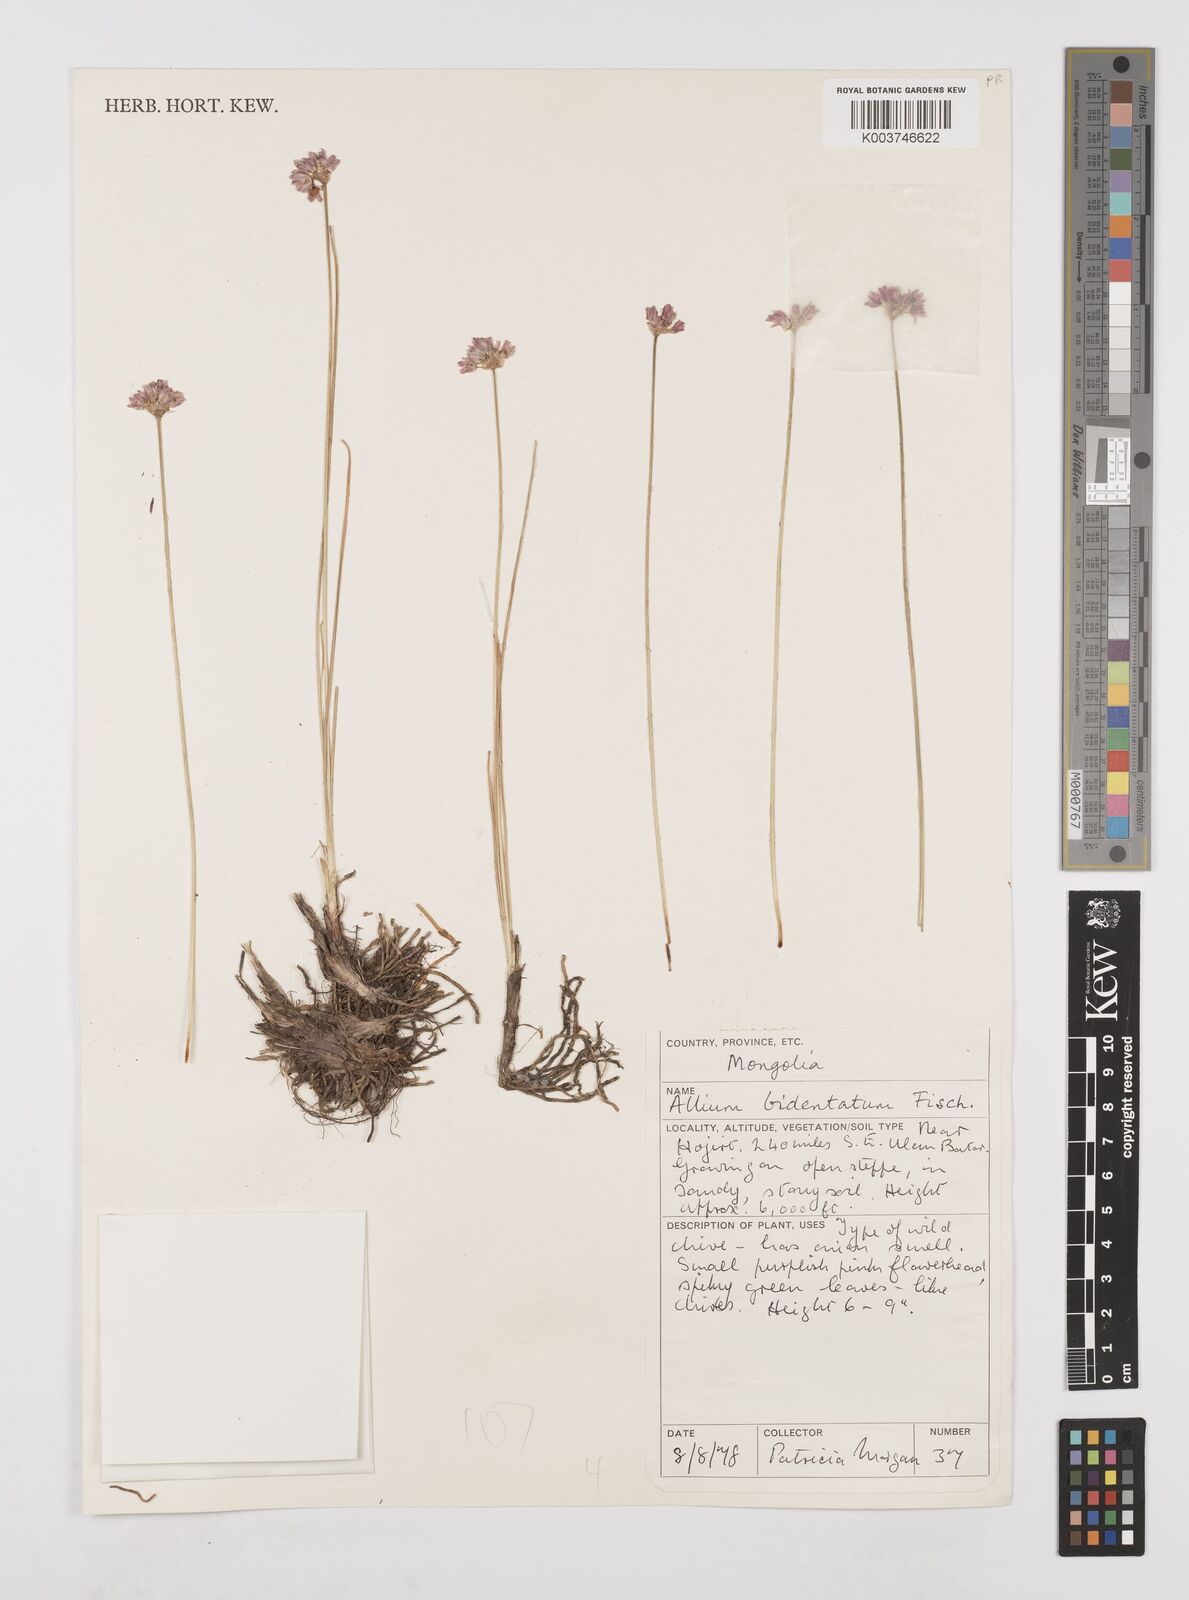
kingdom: Plantae
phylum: Tracheophyta
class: Liliopsida
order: Asparagales
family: Amaryllidaceae
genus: Allium
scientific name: Allium bidentatum
